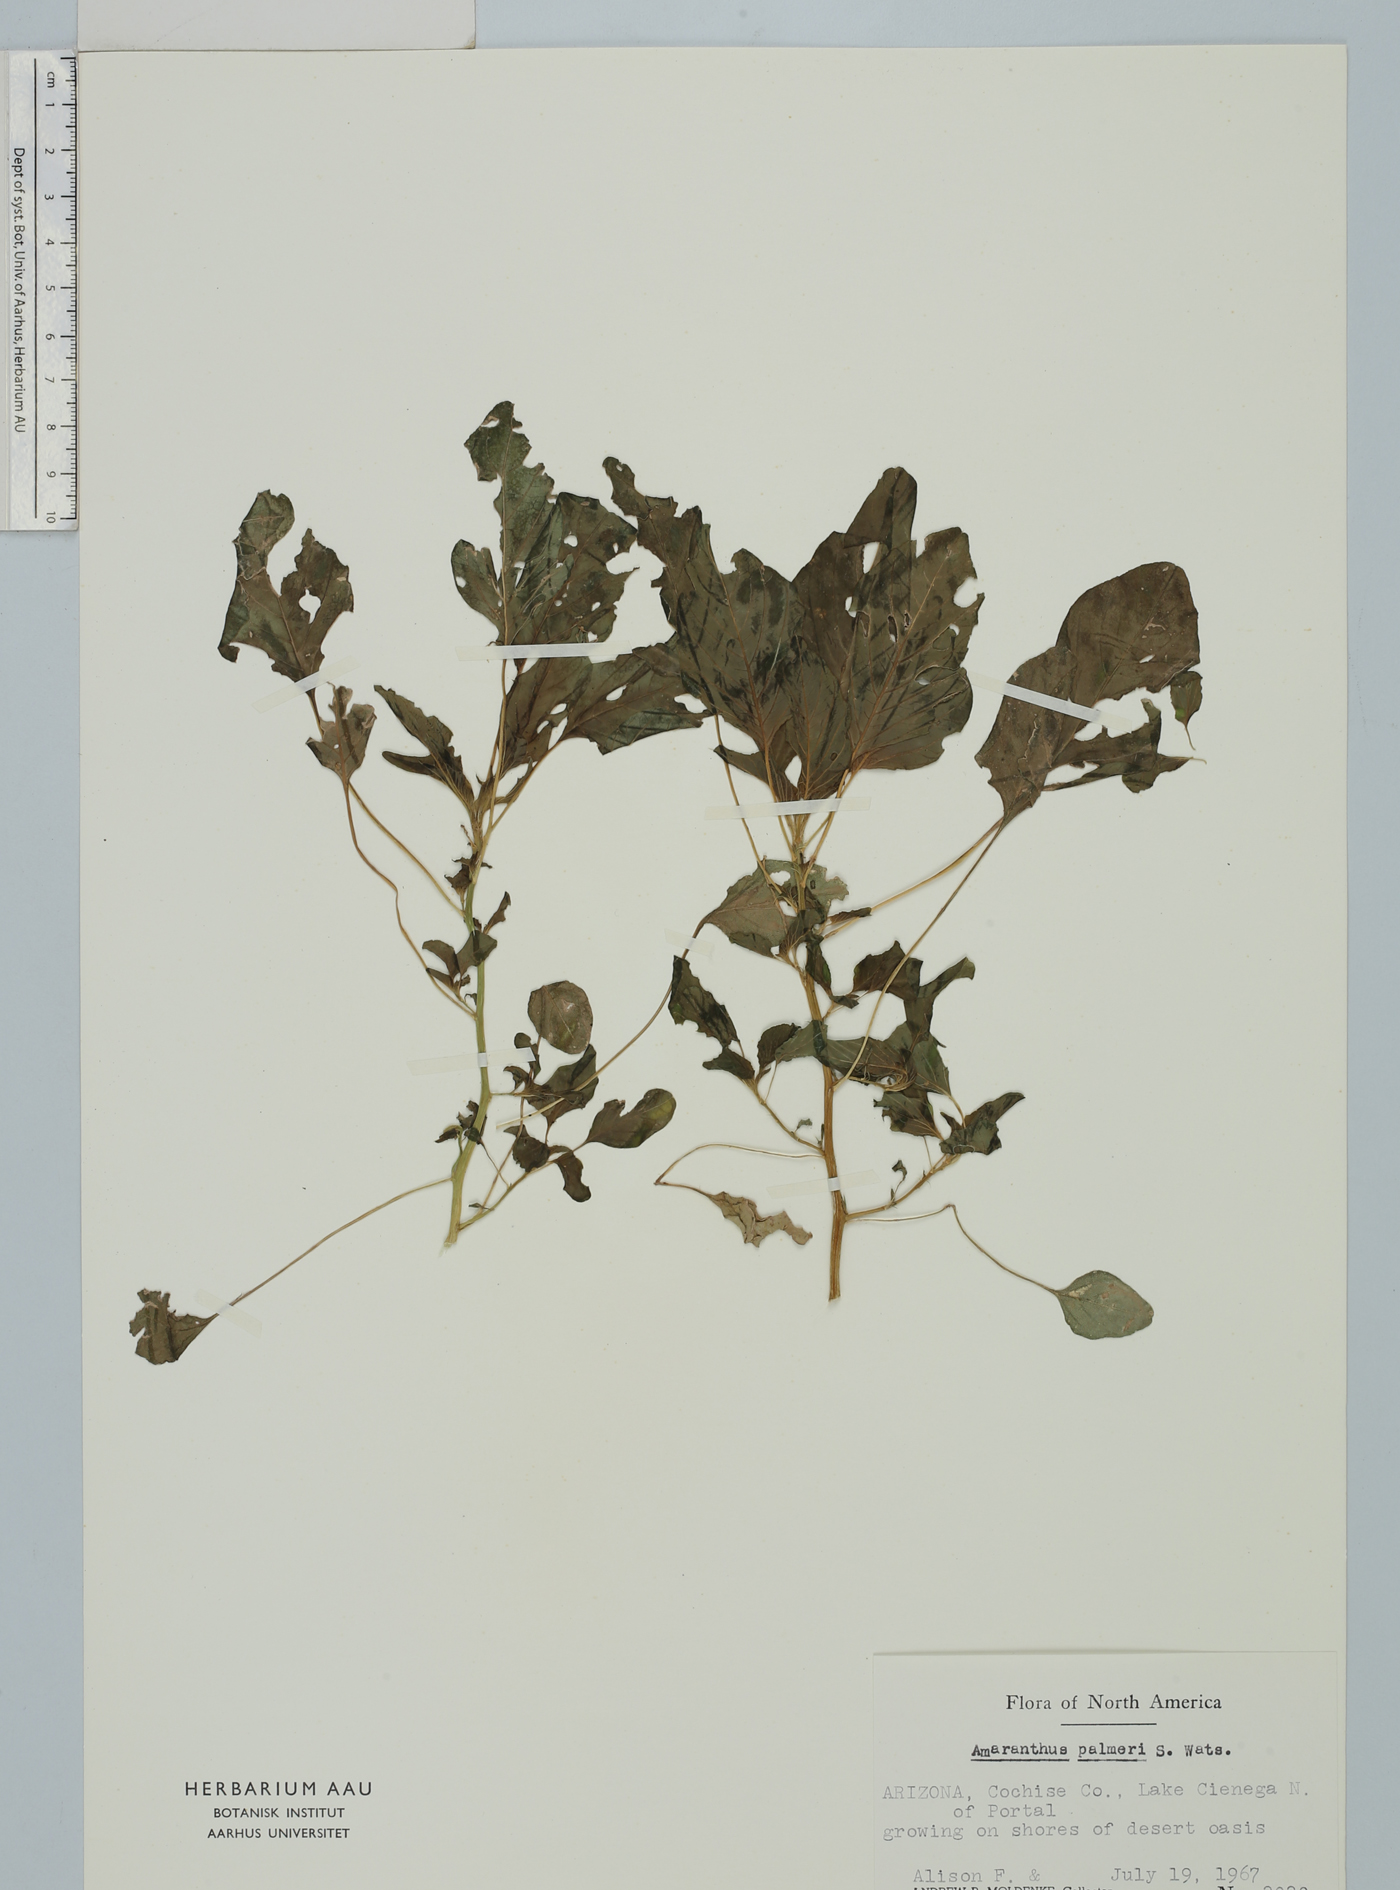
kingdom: Plantae
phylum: Tracheophyta
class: Magnoliopsida
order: Caryophyllales
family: Amaranthaceae
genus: Amaranthus
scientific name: Amaranthus palmeri
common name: Dioecious amaranth
